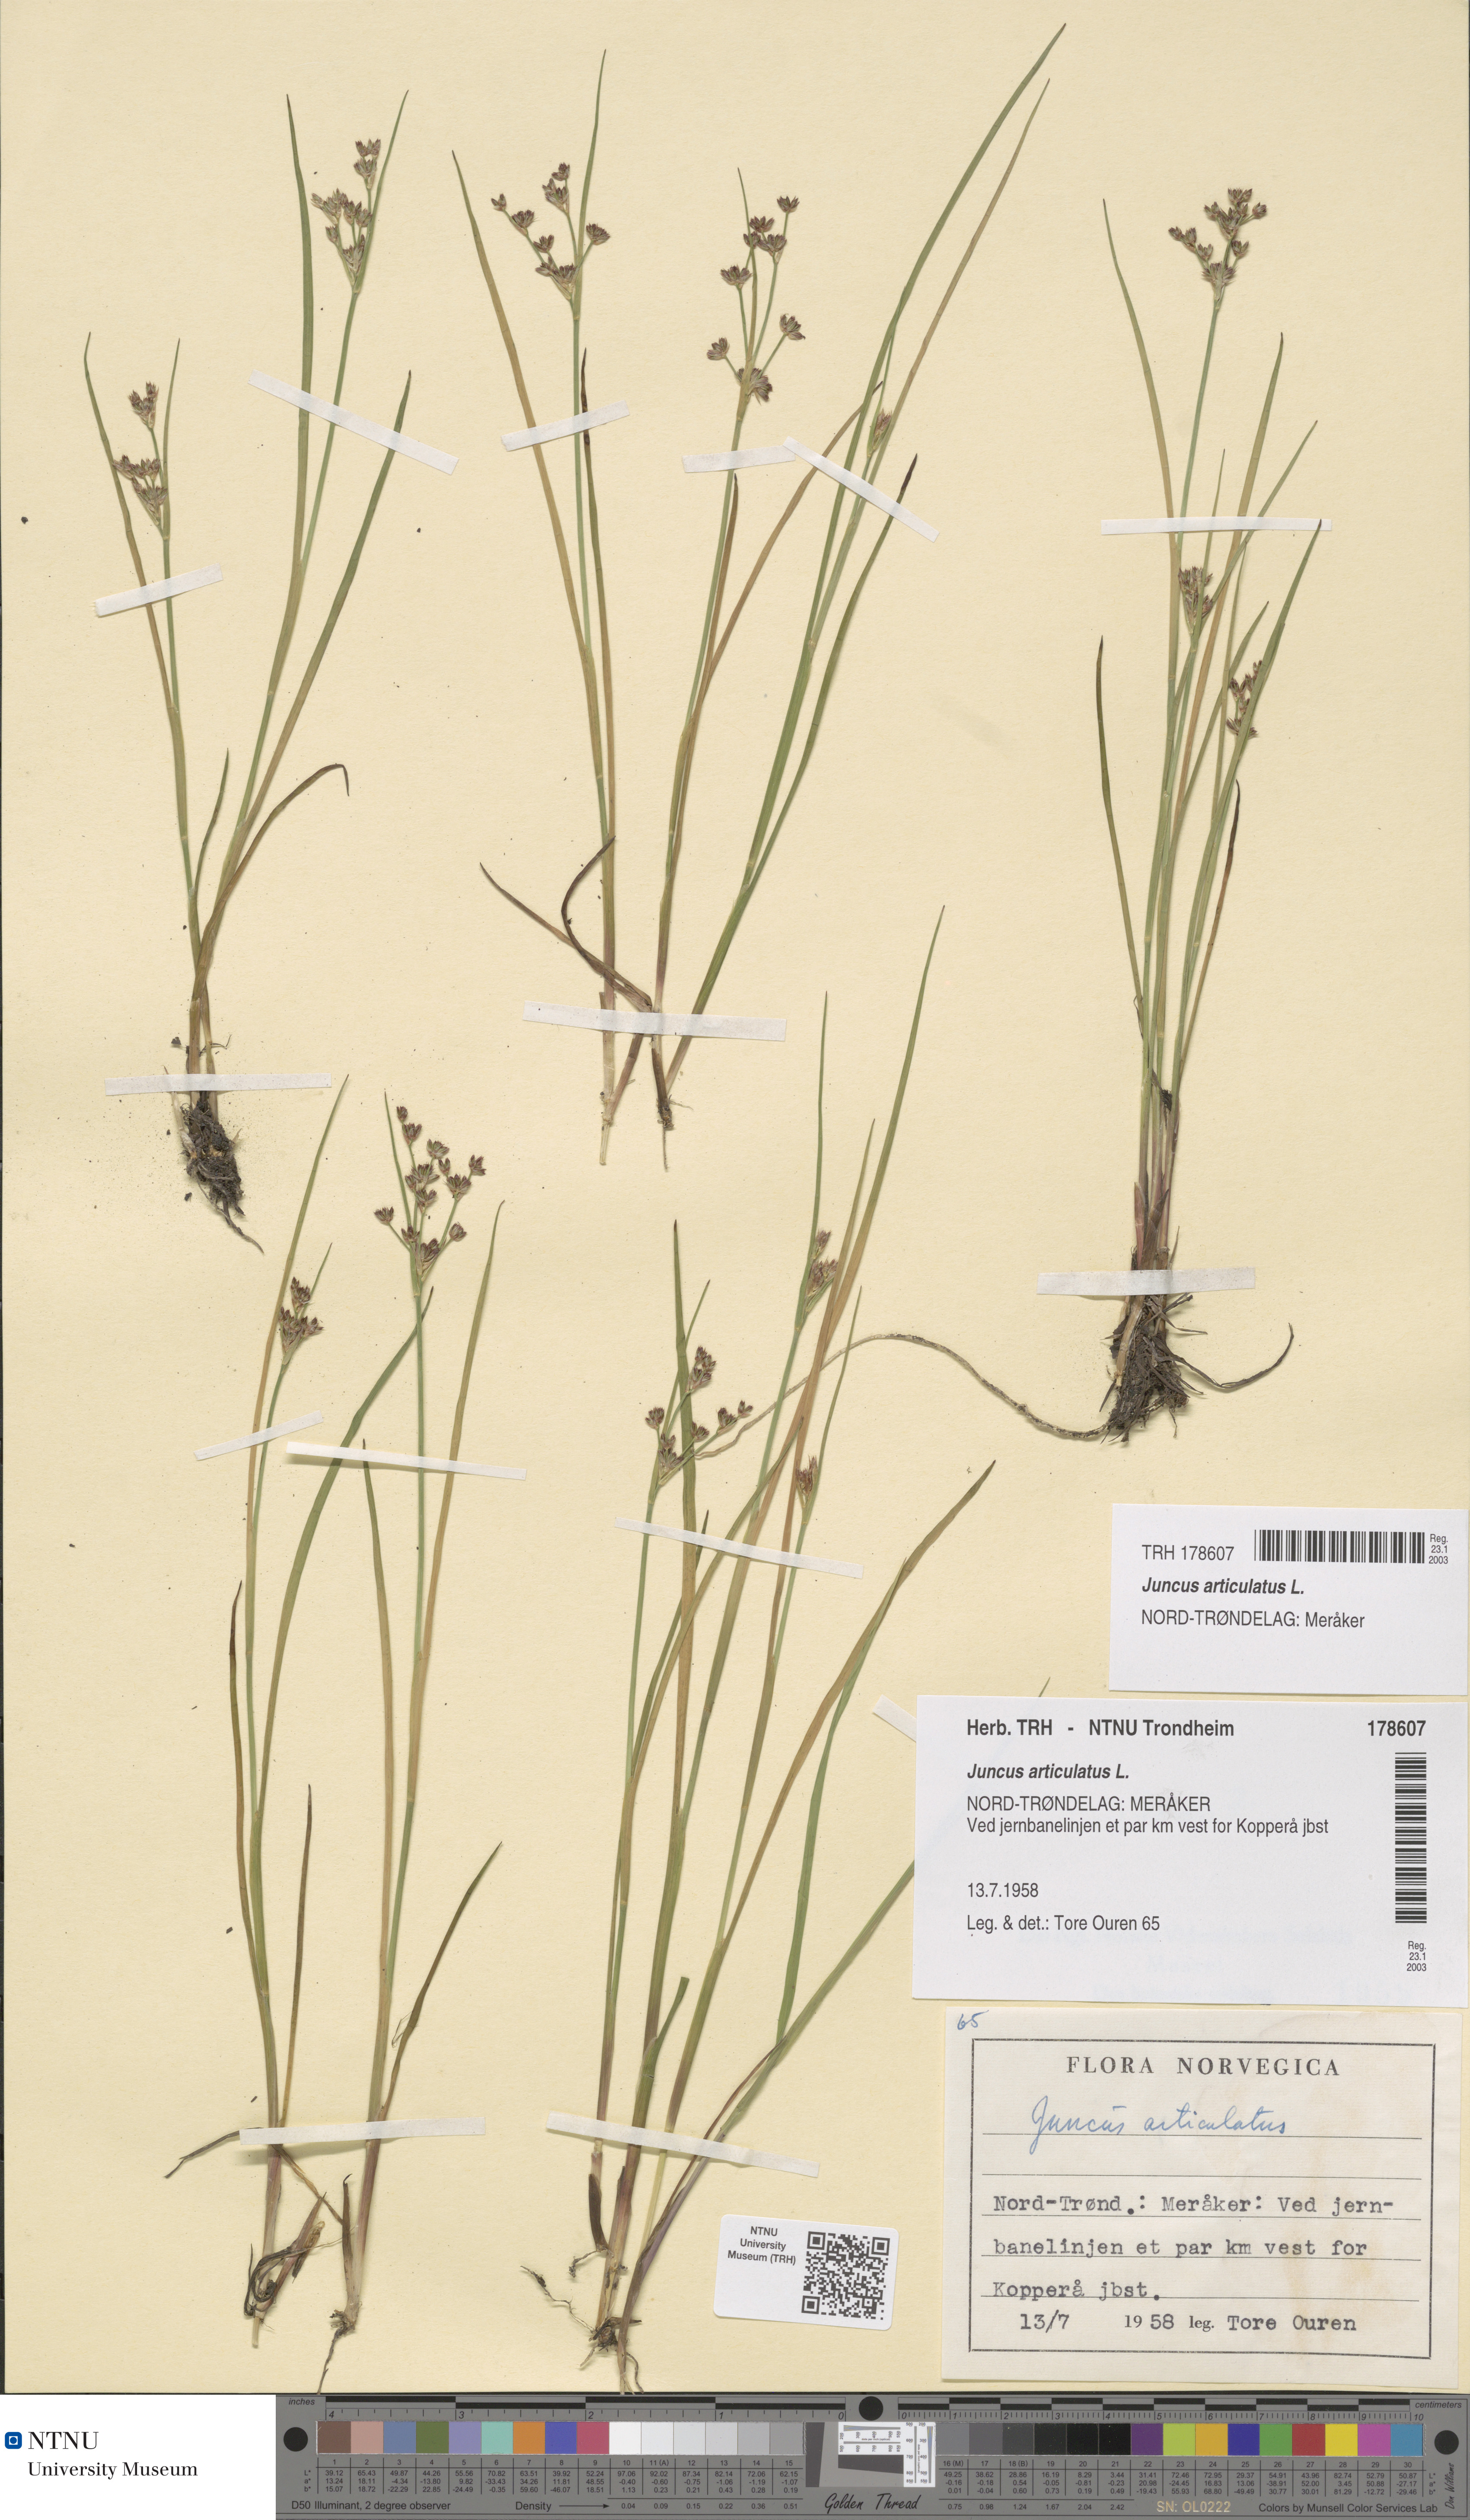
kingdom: Plantae
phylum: Tracheophyta
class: Liliopsida
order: Poales
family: Juncaceae
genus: Juncus
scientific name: Juncus articulatus
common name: Jointed rush
